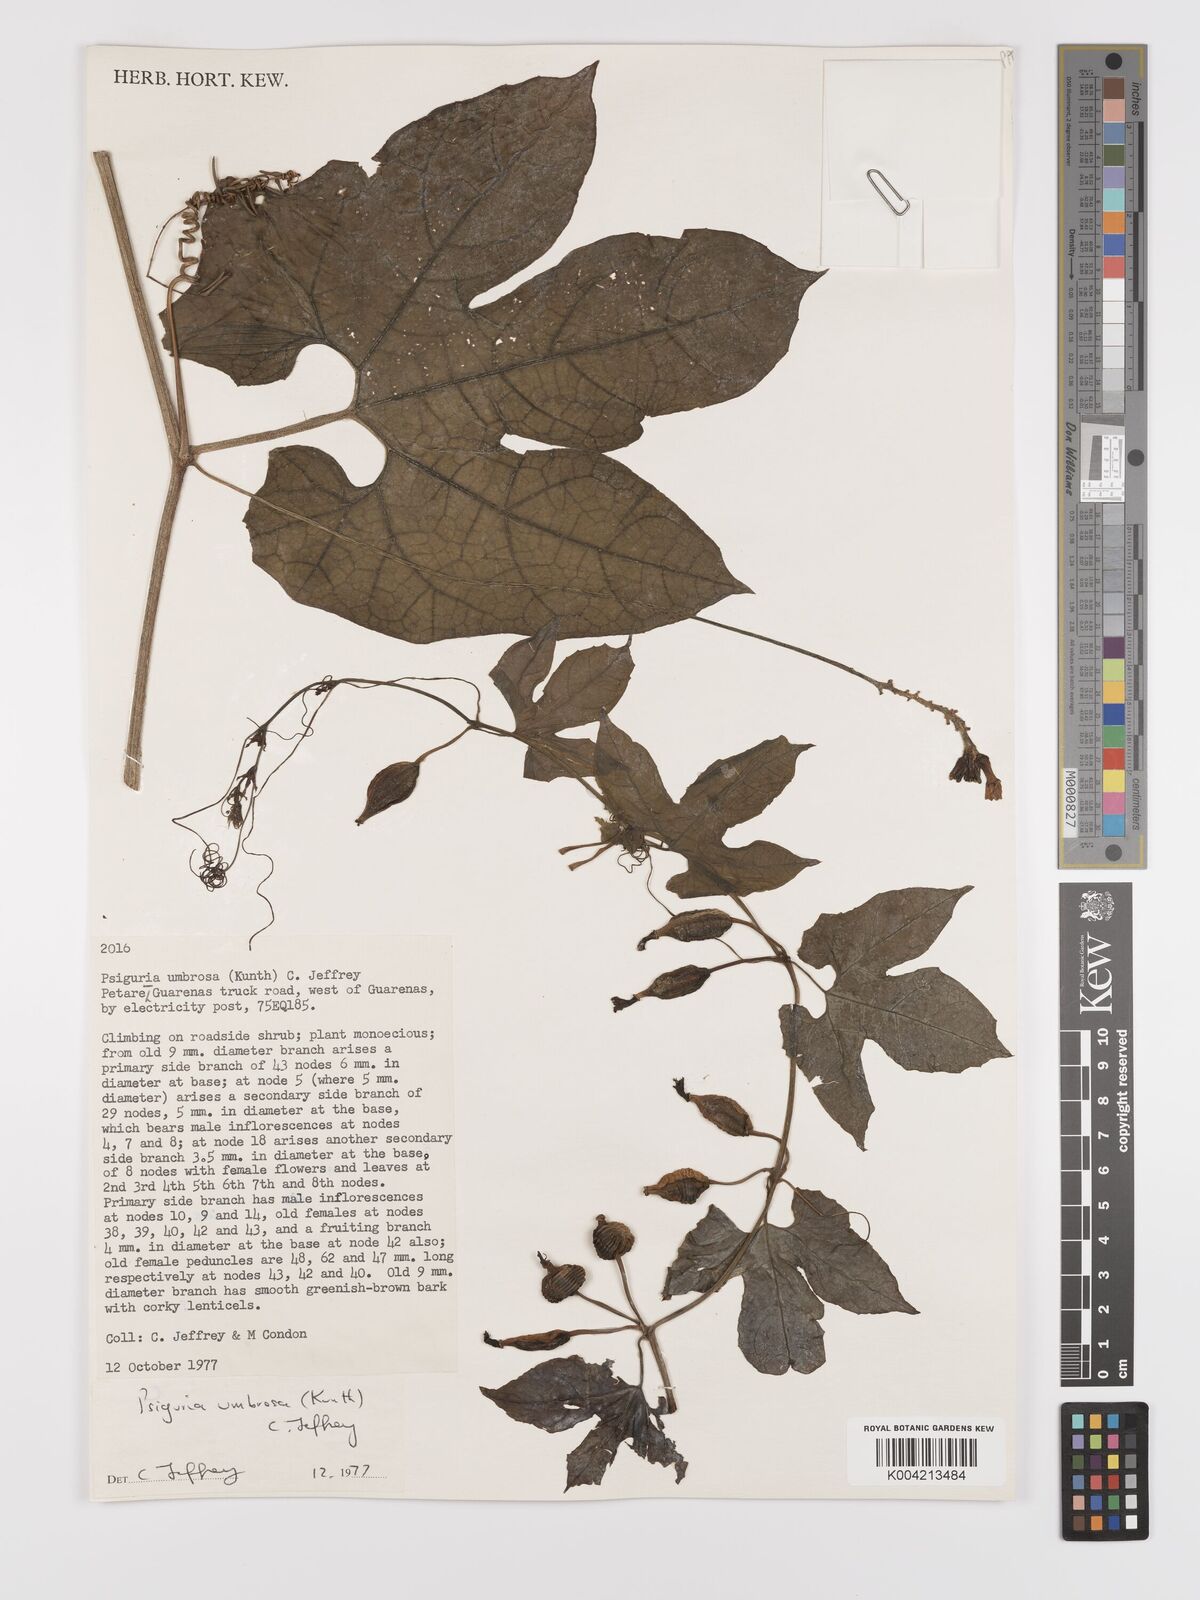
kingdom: Plantae
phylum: Tracheophyta
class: Magnoliopsida
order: Cucurbitales
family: Cucurbitaceae
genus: Psiguria
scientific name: Psiguria umbrosa
